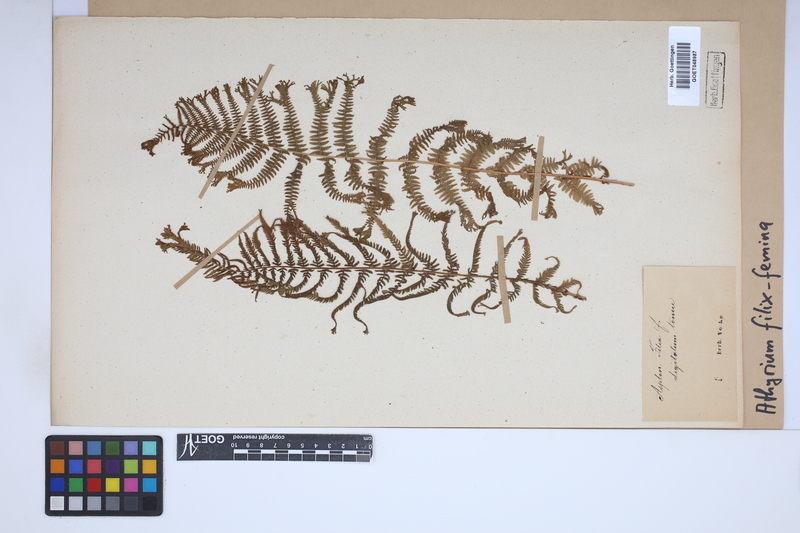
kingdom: Plantae
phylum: Tracheophyta
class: Polypodiopsida
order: Polypodiales
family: Athyriaceae
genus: Athyrium
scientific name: Athyrium filix-femina
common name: Lady fern
